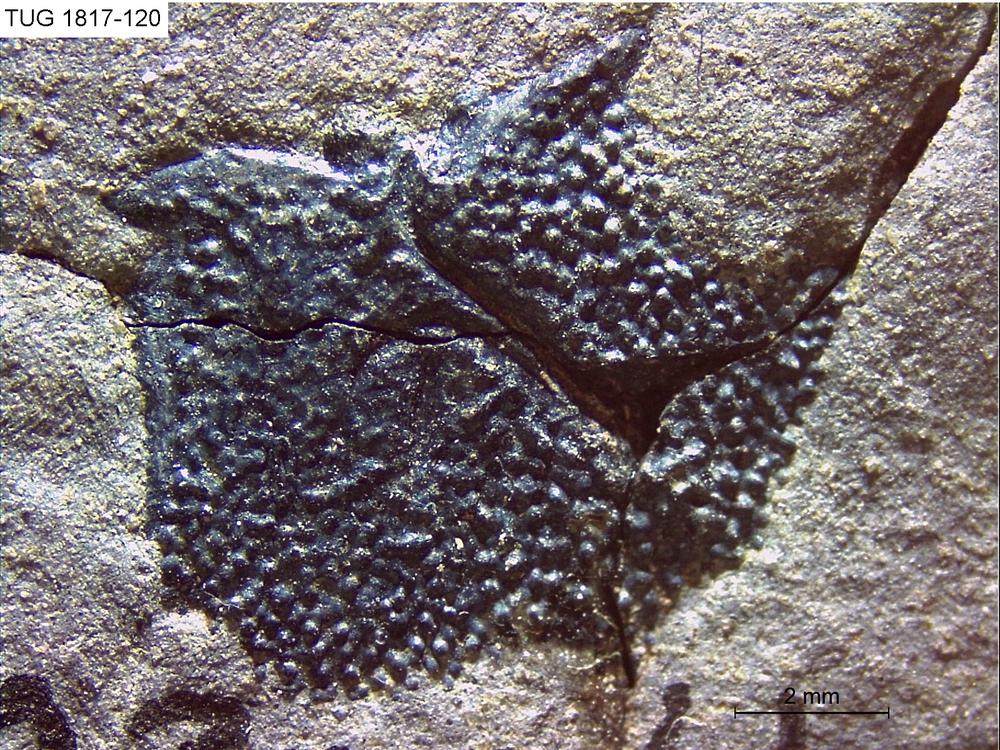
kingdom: Animalia
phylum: Chordata
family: Coccosteidae
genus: Millerosteus
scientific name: Millerosteus minor
